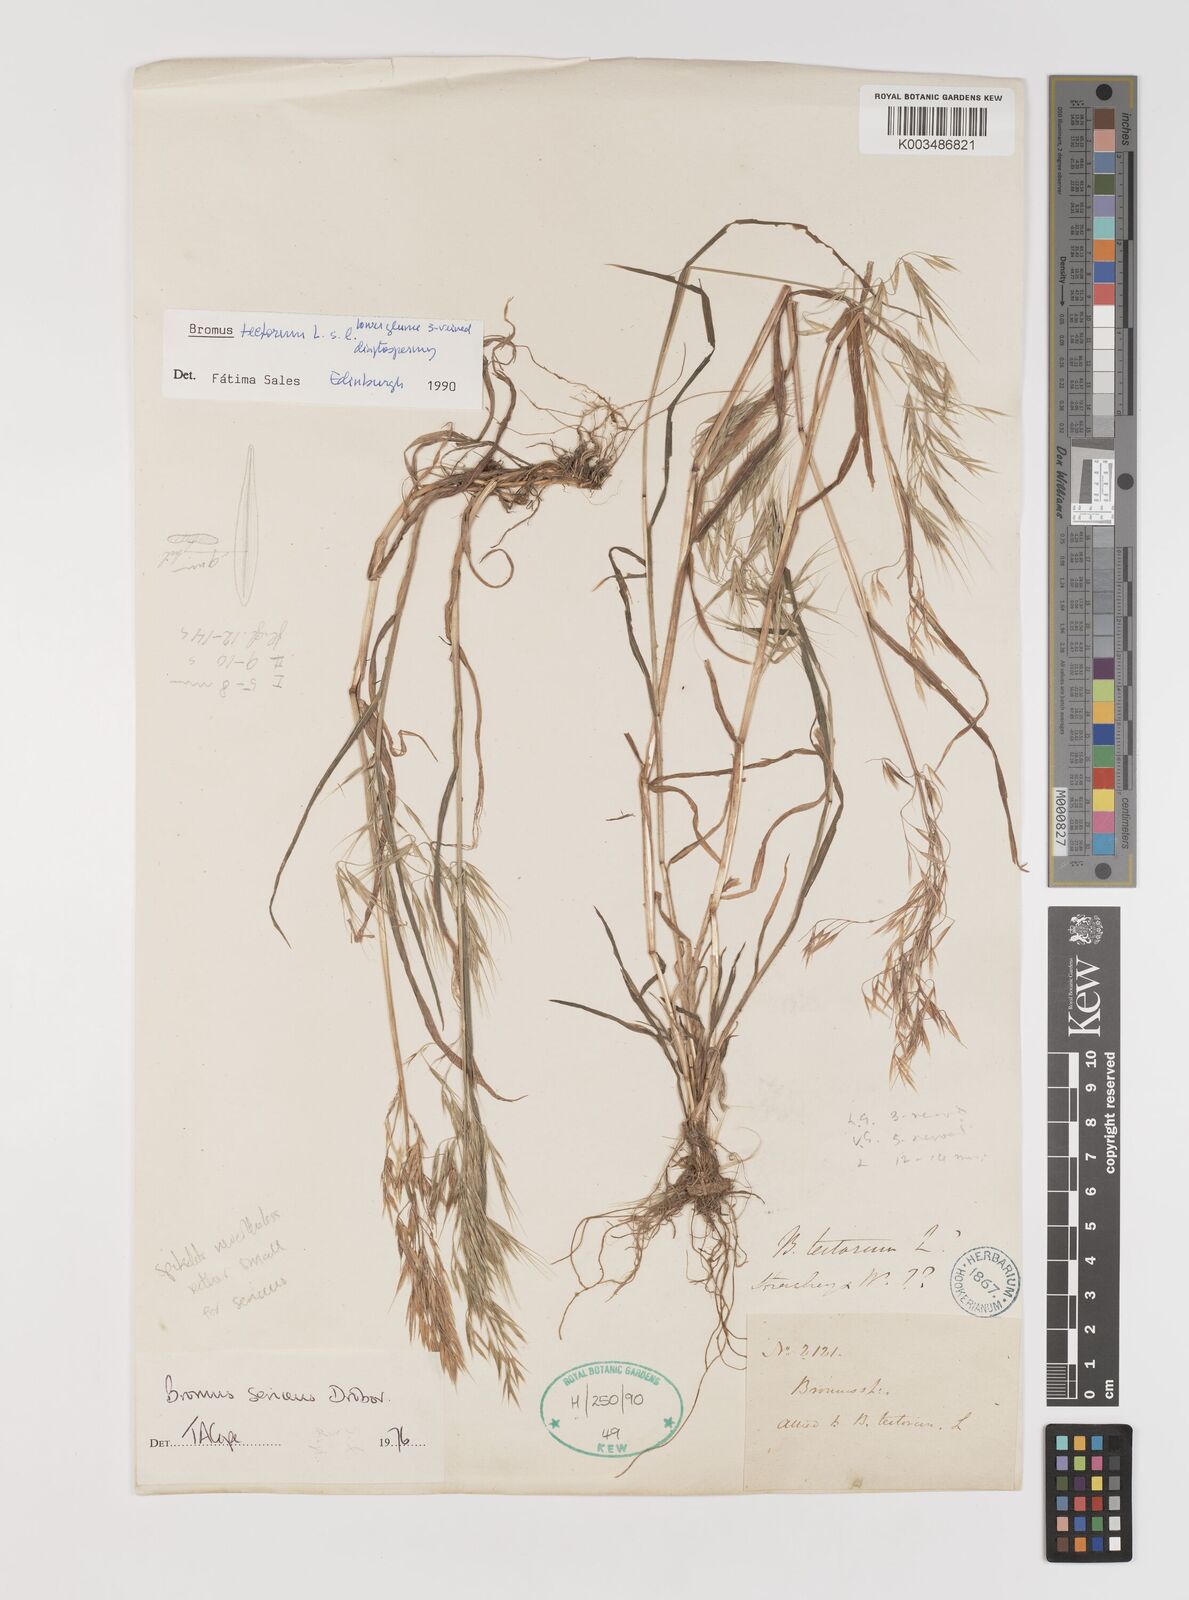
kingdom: Plantae
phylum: Tracheophyta
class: Liliopsida
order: Poales
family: Poaceae
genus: Bromus
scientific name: Bromus tectorum
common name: Cheatgrass
